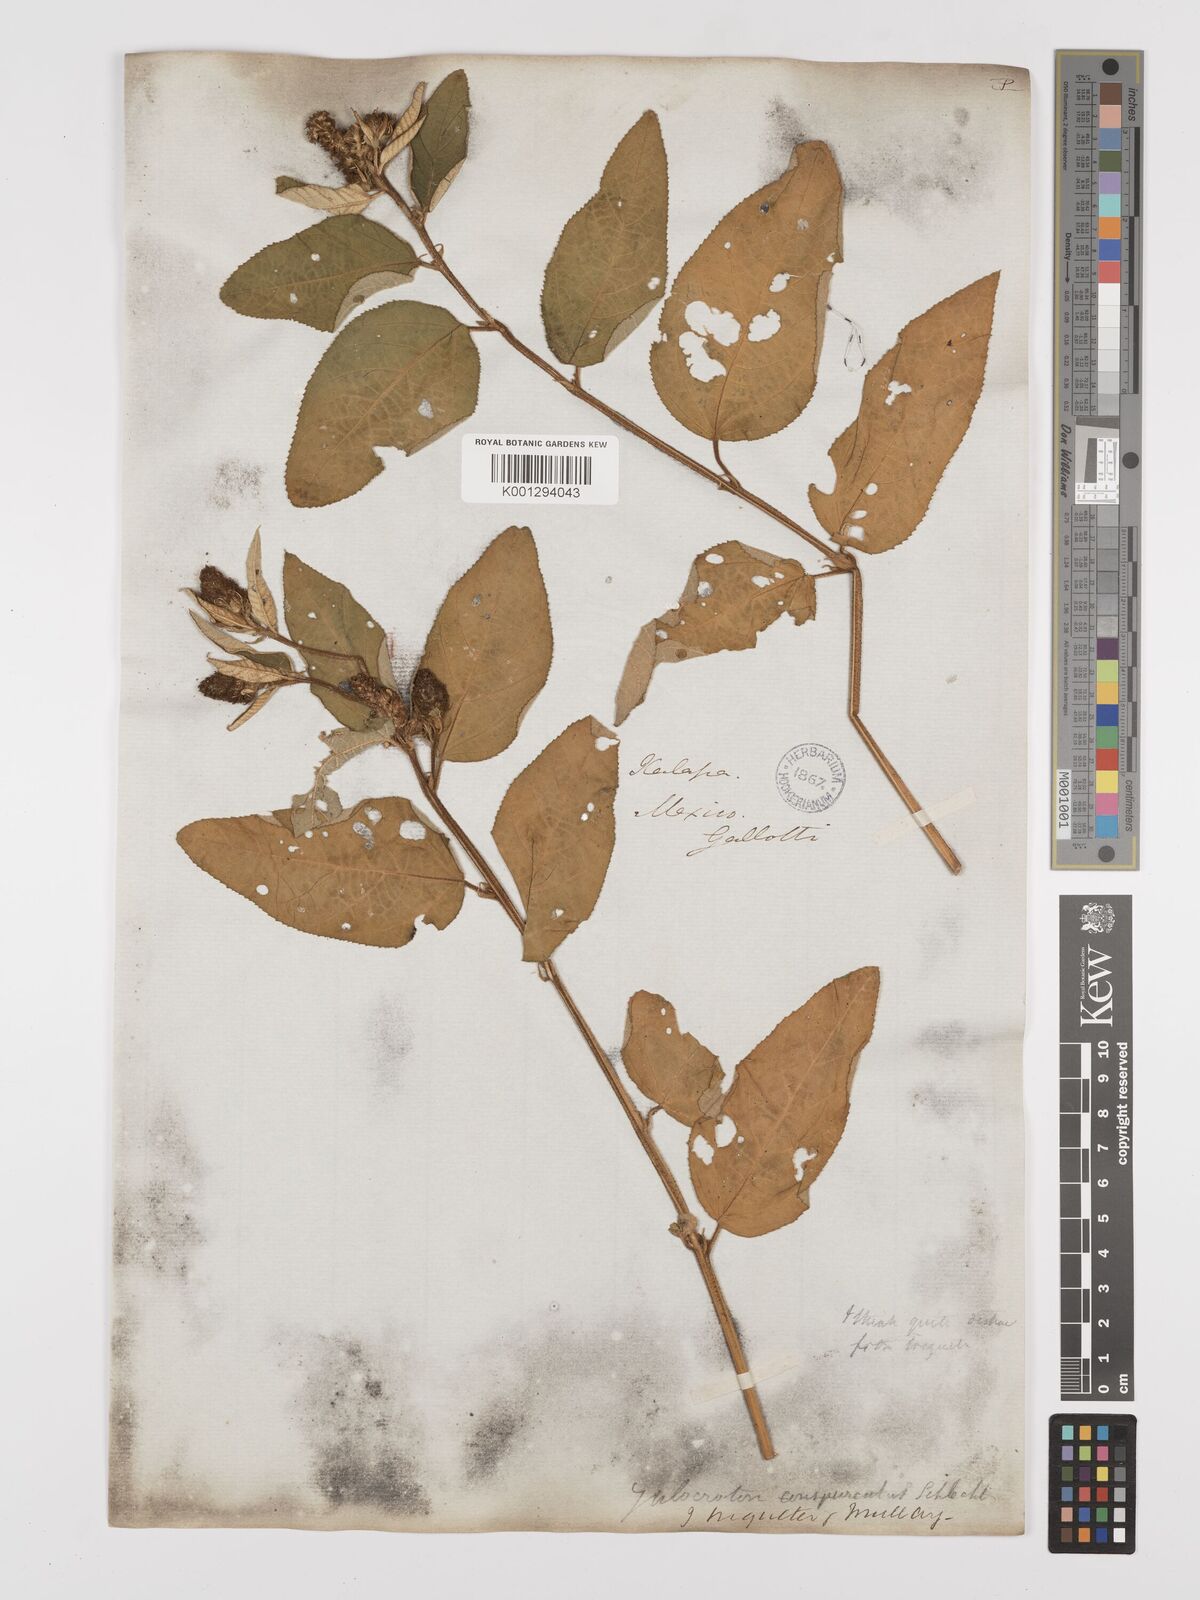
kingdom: Plantae
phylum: Tracheophyta
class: Magnoliopsida
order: Malpighiales
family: Euphorbiaceae
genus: Croton
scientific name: Croton conspurcatus
